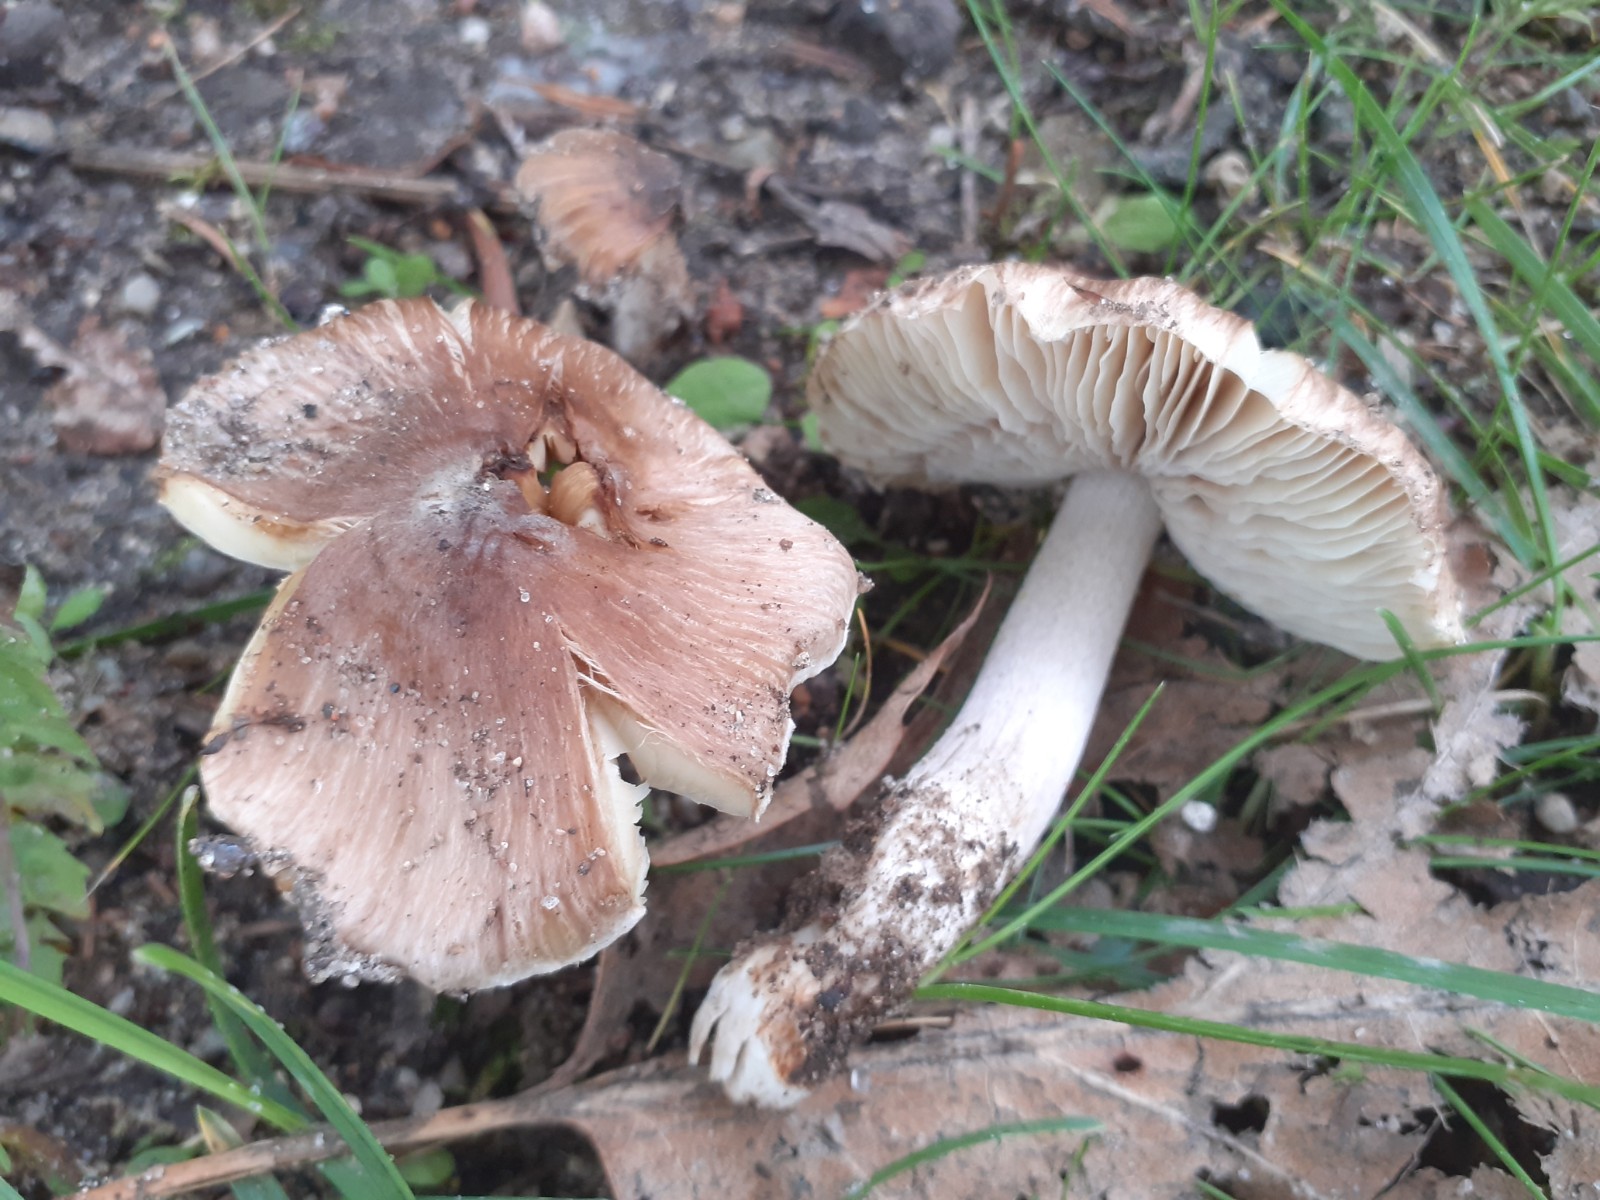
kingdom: Fungi
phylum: Basidiomycota
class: Agaricomycetes
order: Agaricales
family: Inocybaceae
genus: Pseudosperma
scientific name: Pseudosperma umbrinellum
